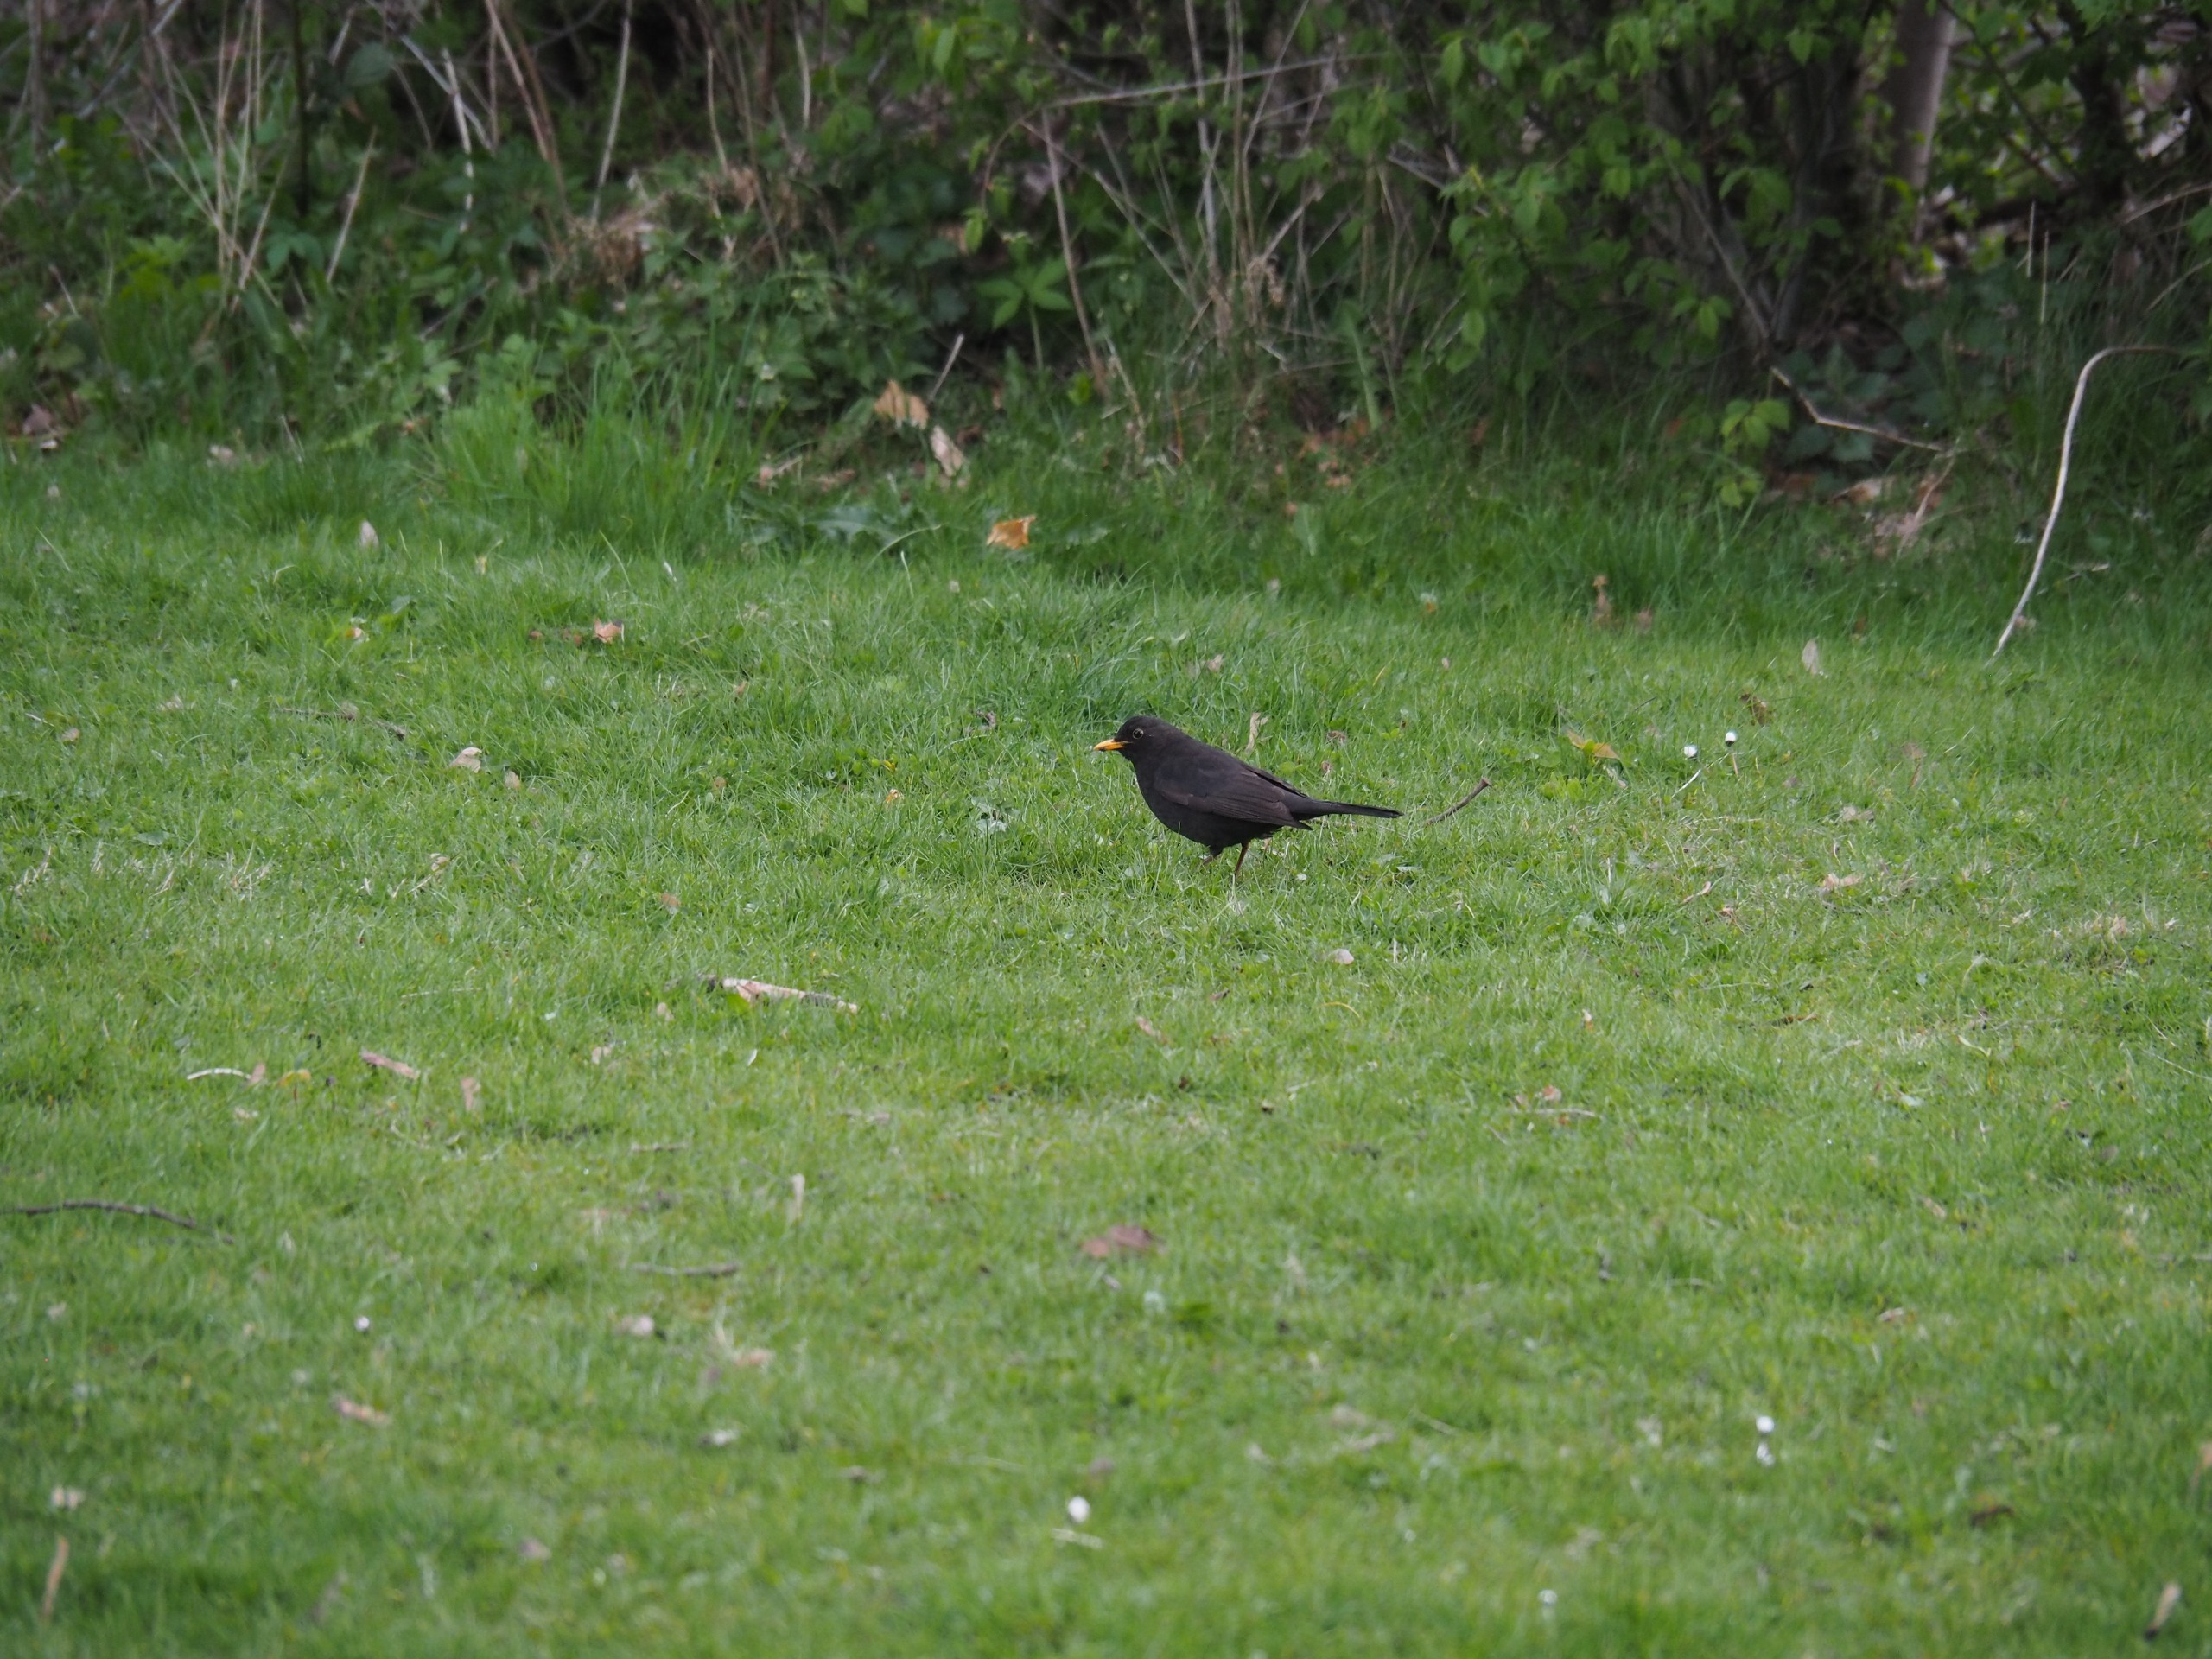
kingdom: Animalia
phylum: Chordata
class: Aves
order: Passeriformes
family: Turdidae
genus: Turdus
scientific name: Turdus merula
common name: Solsort
